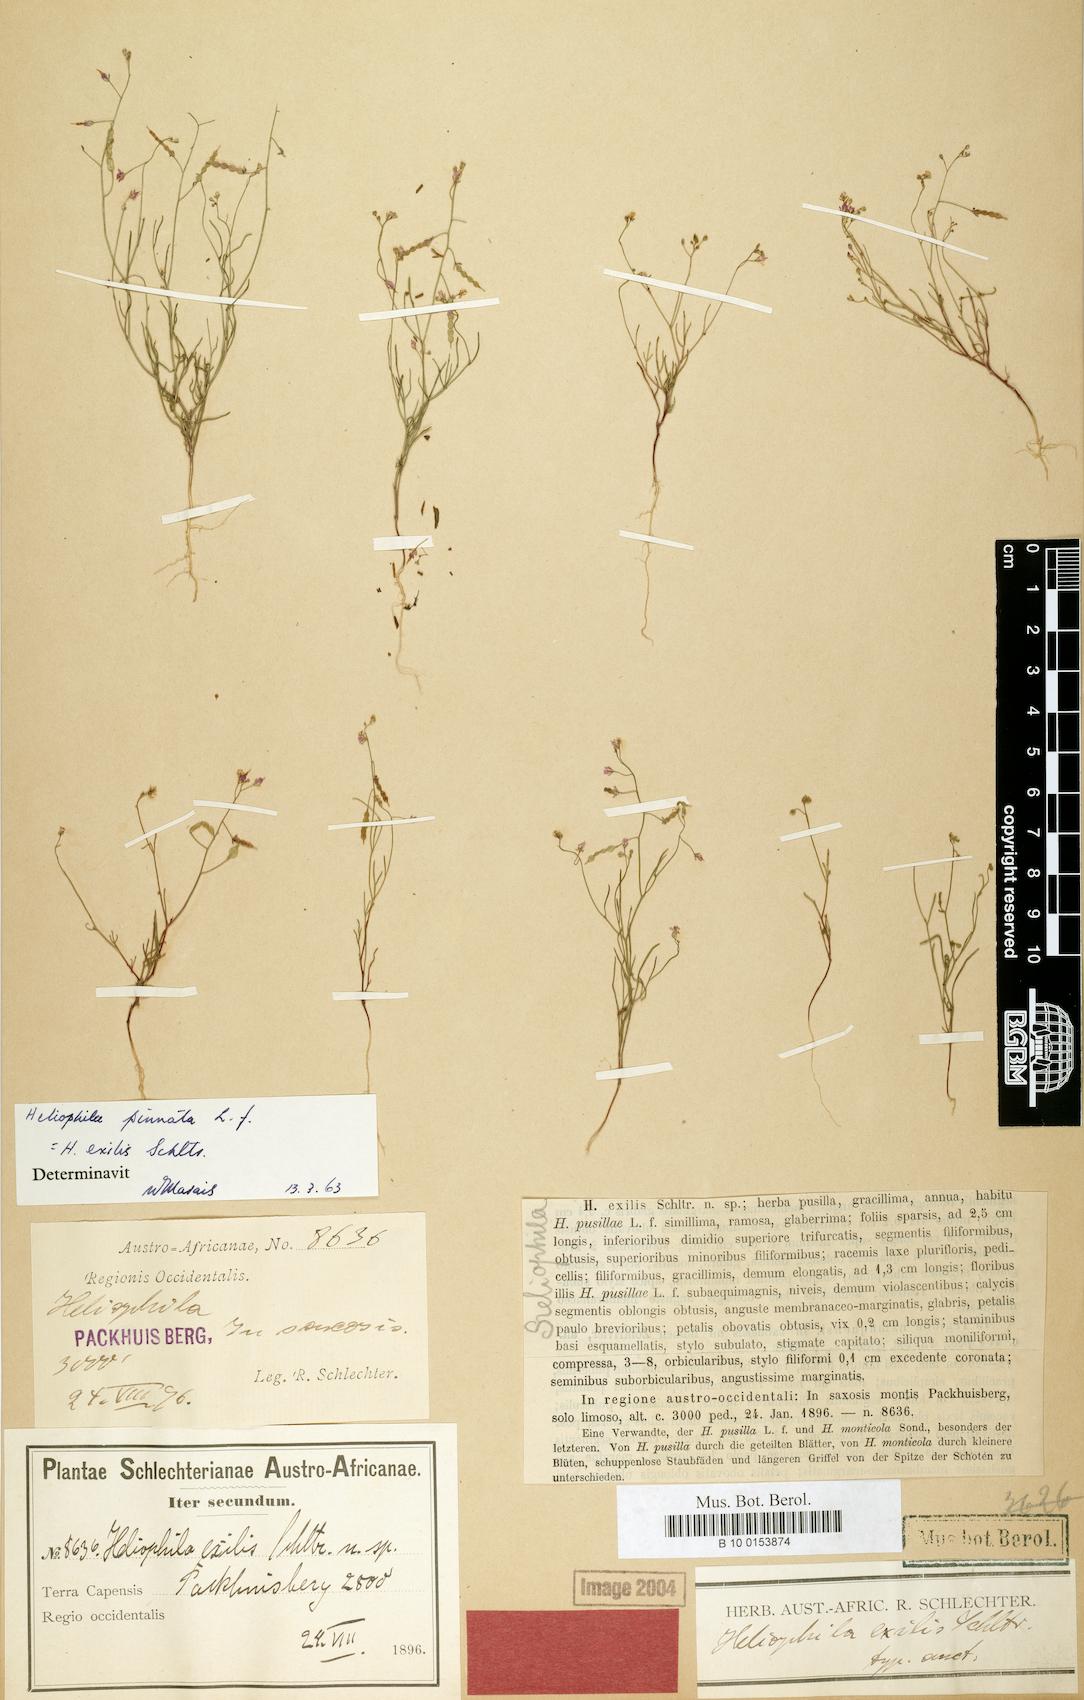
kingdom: Plantae
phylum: Tracheophyta
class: Magnoliopsida
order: Brassicales
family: Brassicaceae
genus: Heliophila
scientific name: Heliophila pinnata
